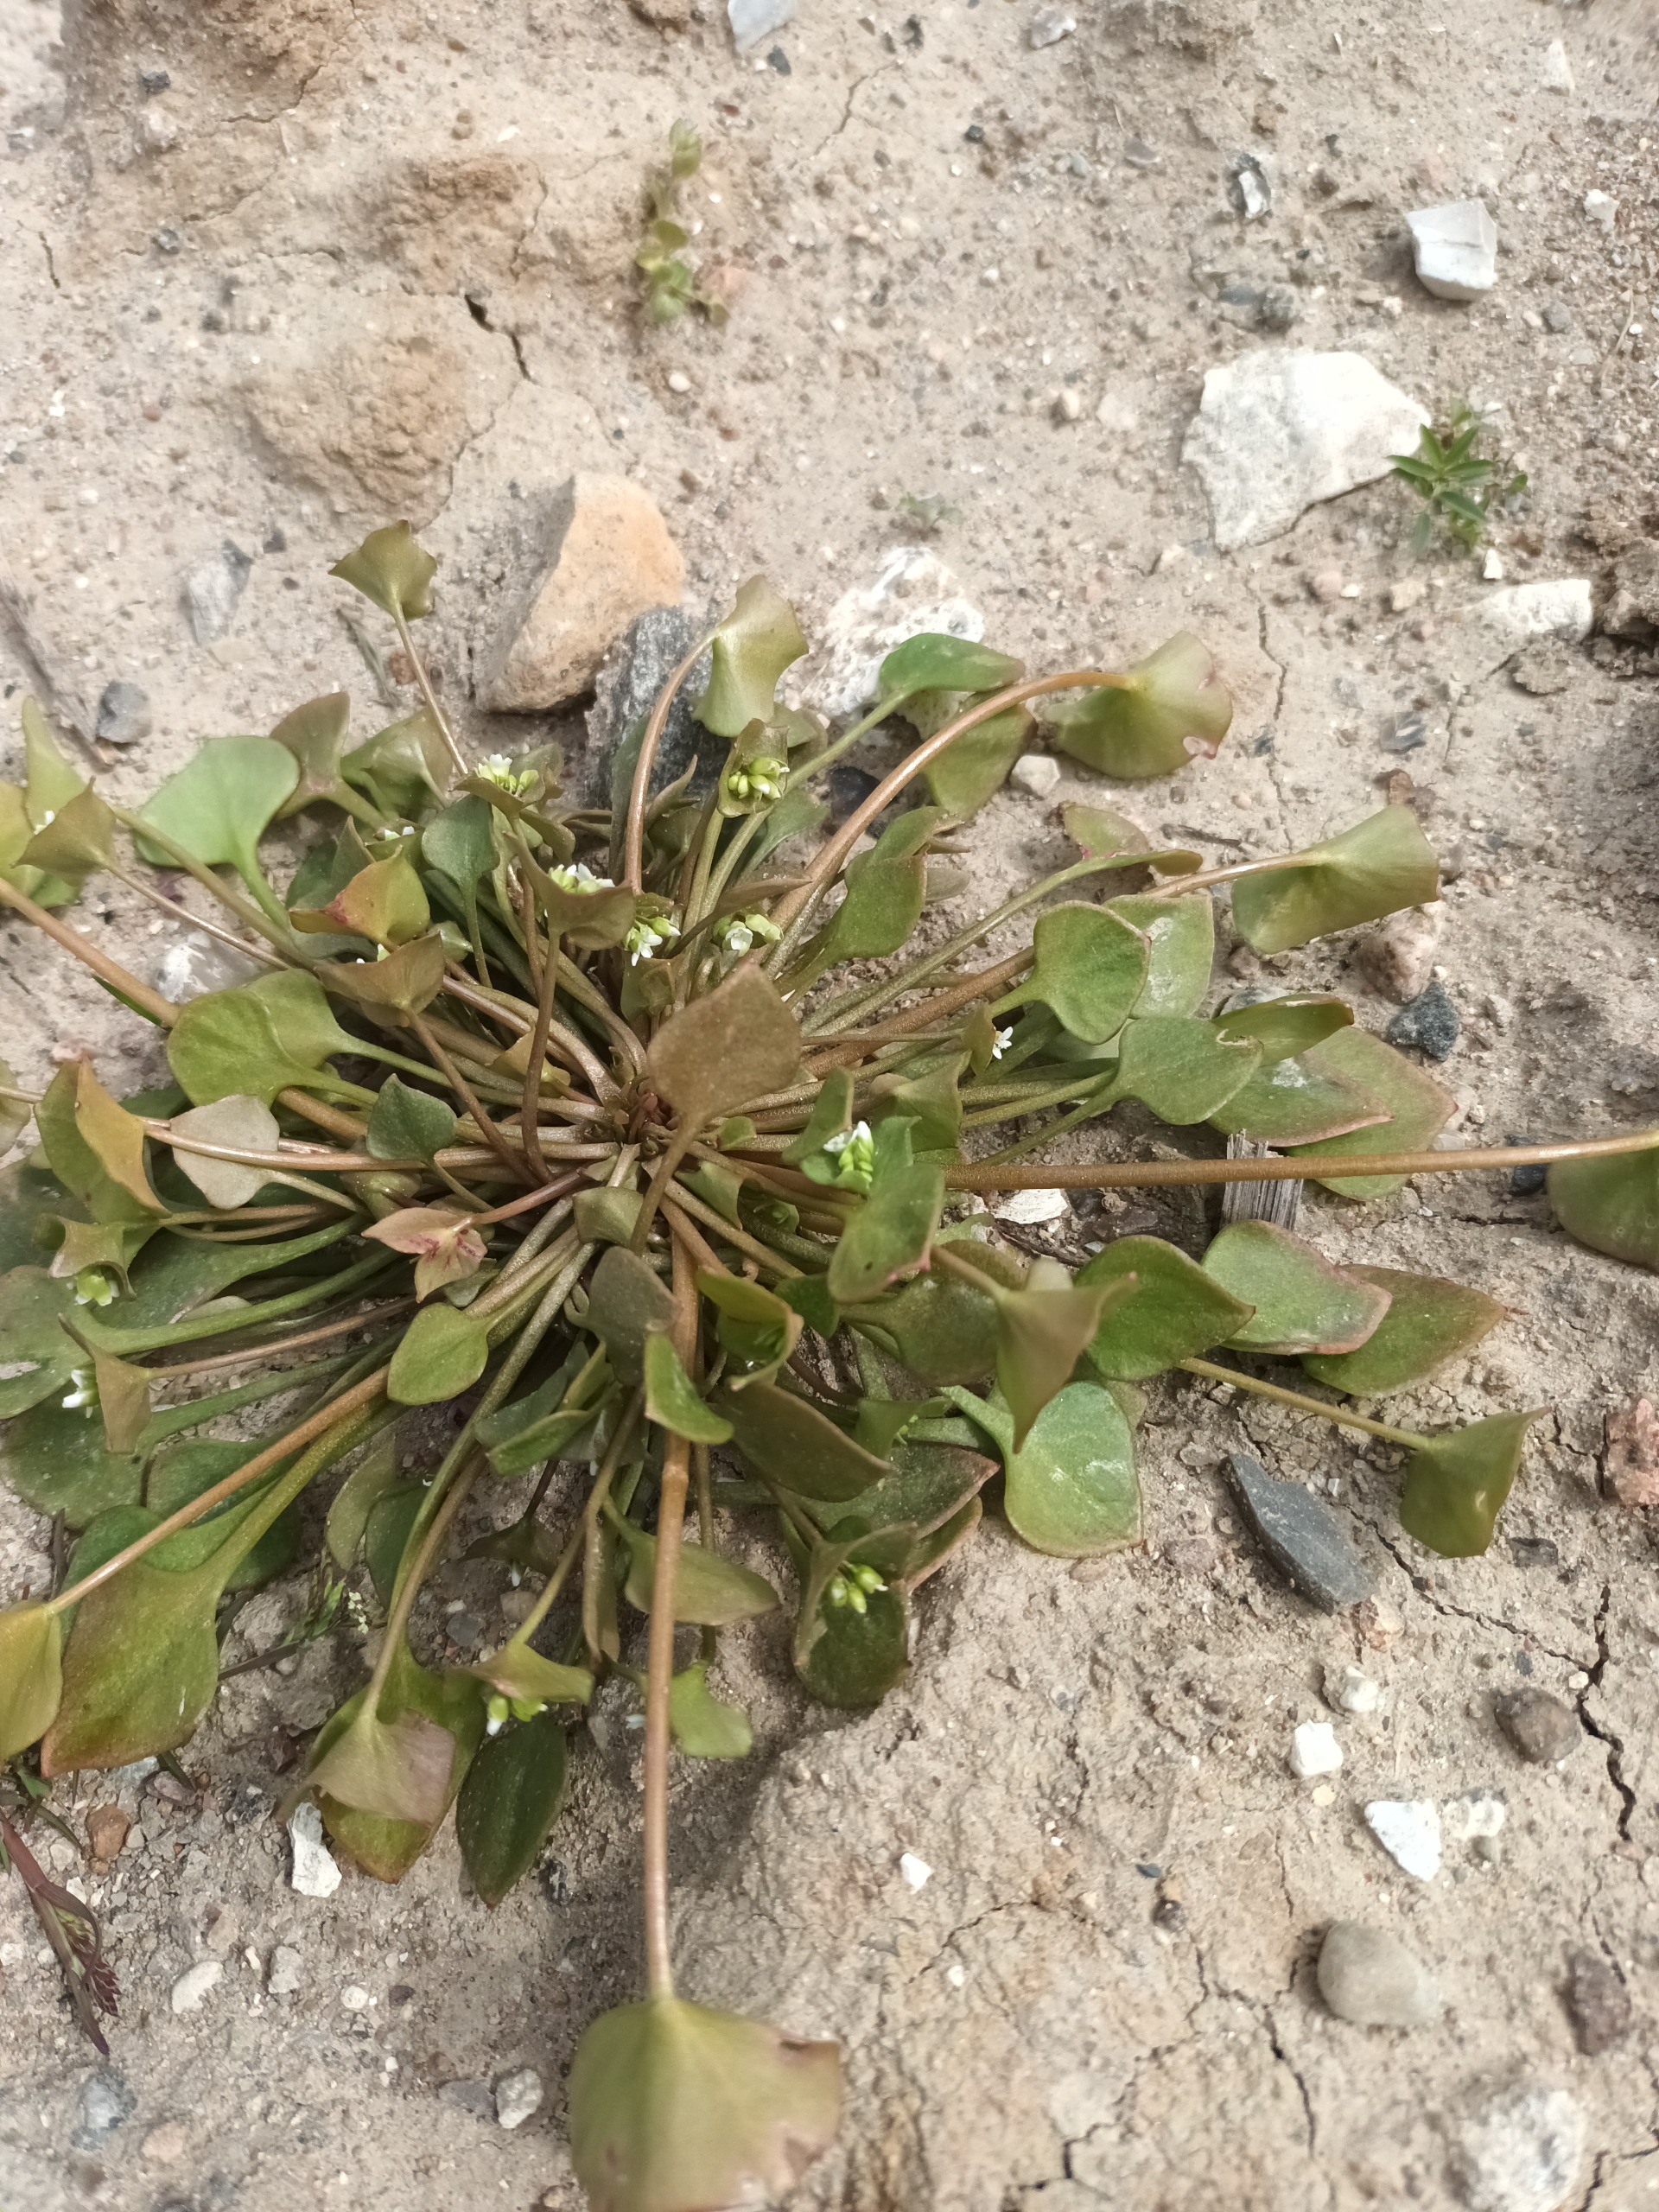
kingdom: Plantae
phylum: Tracheophyta
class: Magnoliopsida
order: Caryophyllales
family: Montiaceae
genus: Claytonia
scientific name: Claytonia perfoliata
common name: Spiselig vinterportulak
